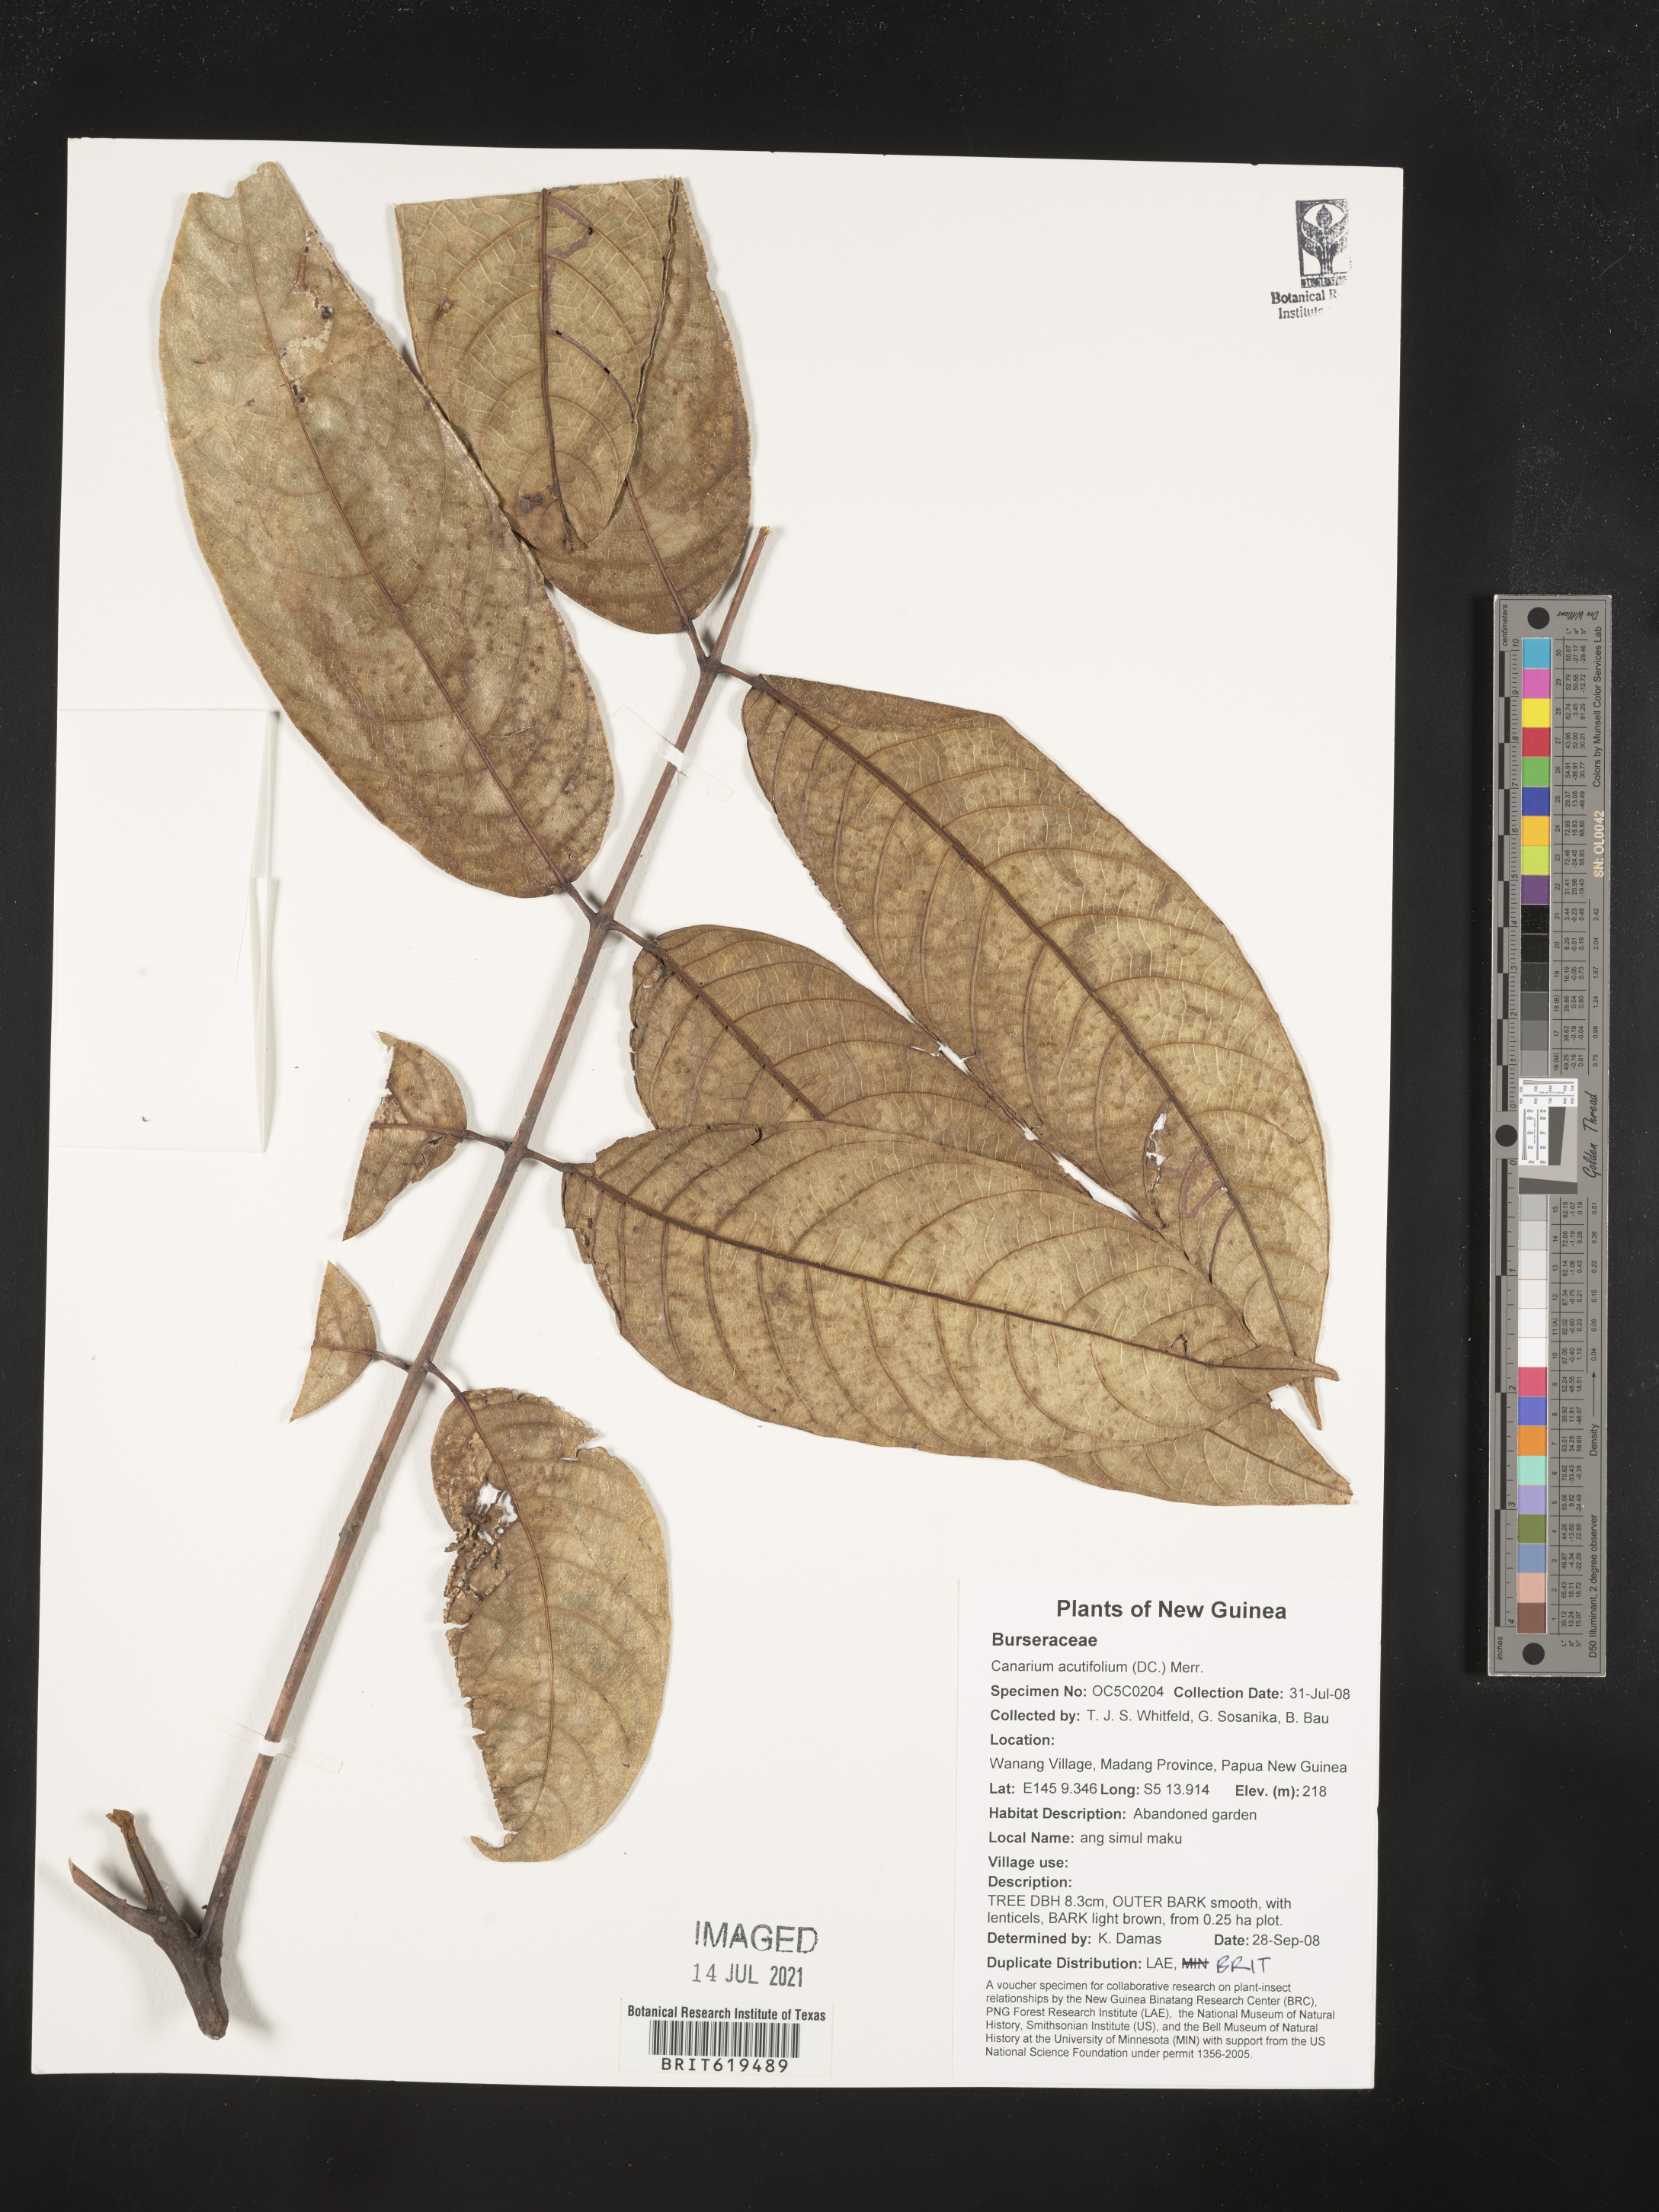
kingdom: Plantae
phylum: Tracheophyta
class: Magnoliopsida
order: Sapindales
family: Burseraceae
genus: Canarium
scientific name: Canarium acutifolium
